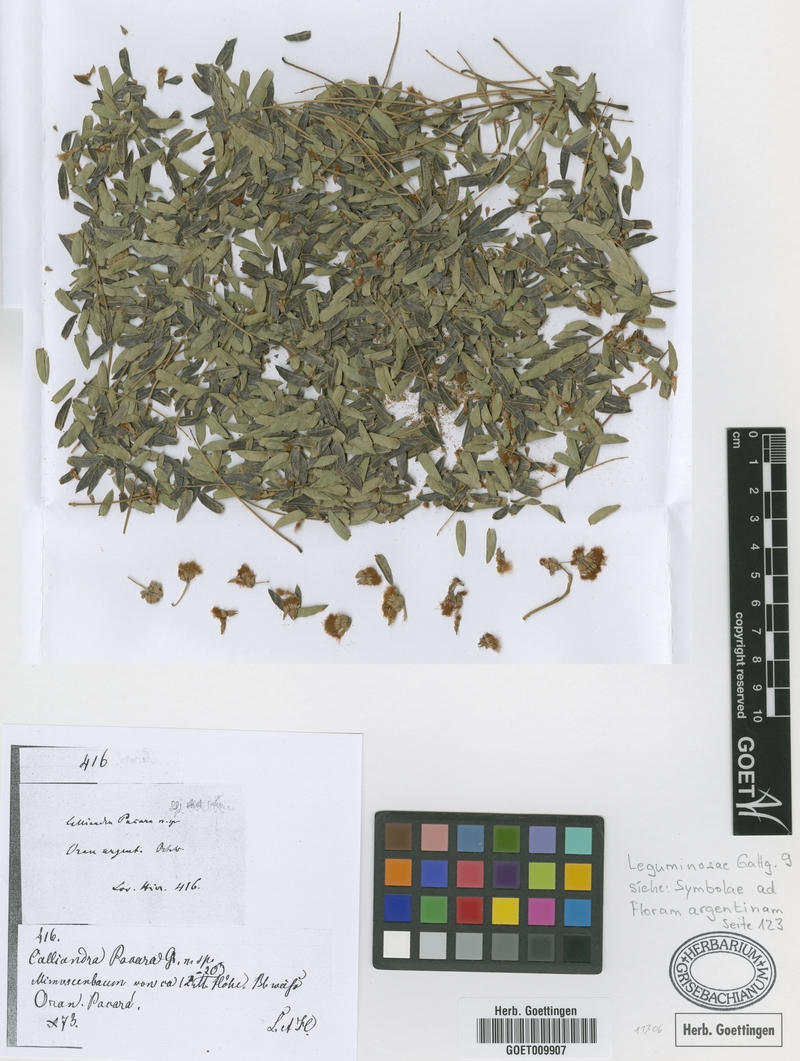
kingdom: Plantae
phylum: Tracheophyta
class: Magnoliopsida
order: Fabales
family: Fabaceae
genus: Enterolobium
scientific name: Enterolobium contortisiliquum
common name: Pacara earpod tree
